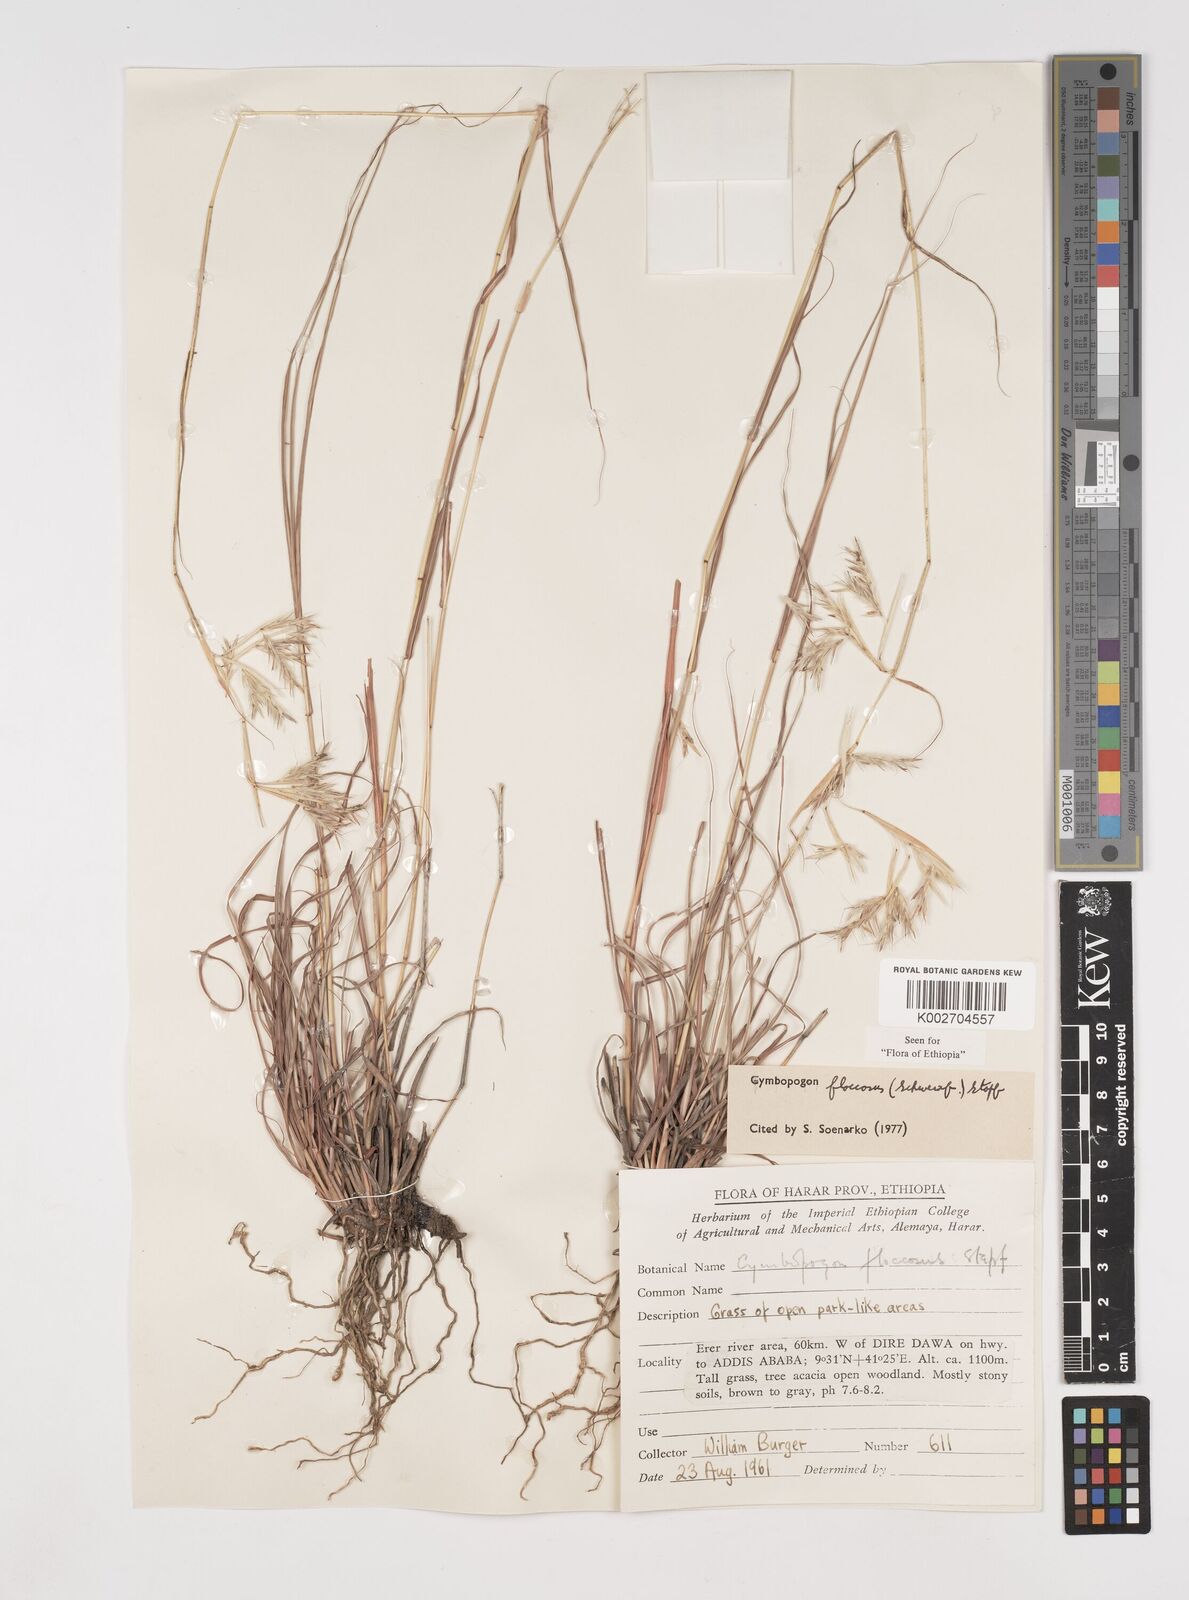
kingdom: Plantae
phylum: Tracheophyta
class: Liliopsida
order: Poales
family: Poaceae
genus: Cymbopogon
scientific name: Cymbopogon commutatus
